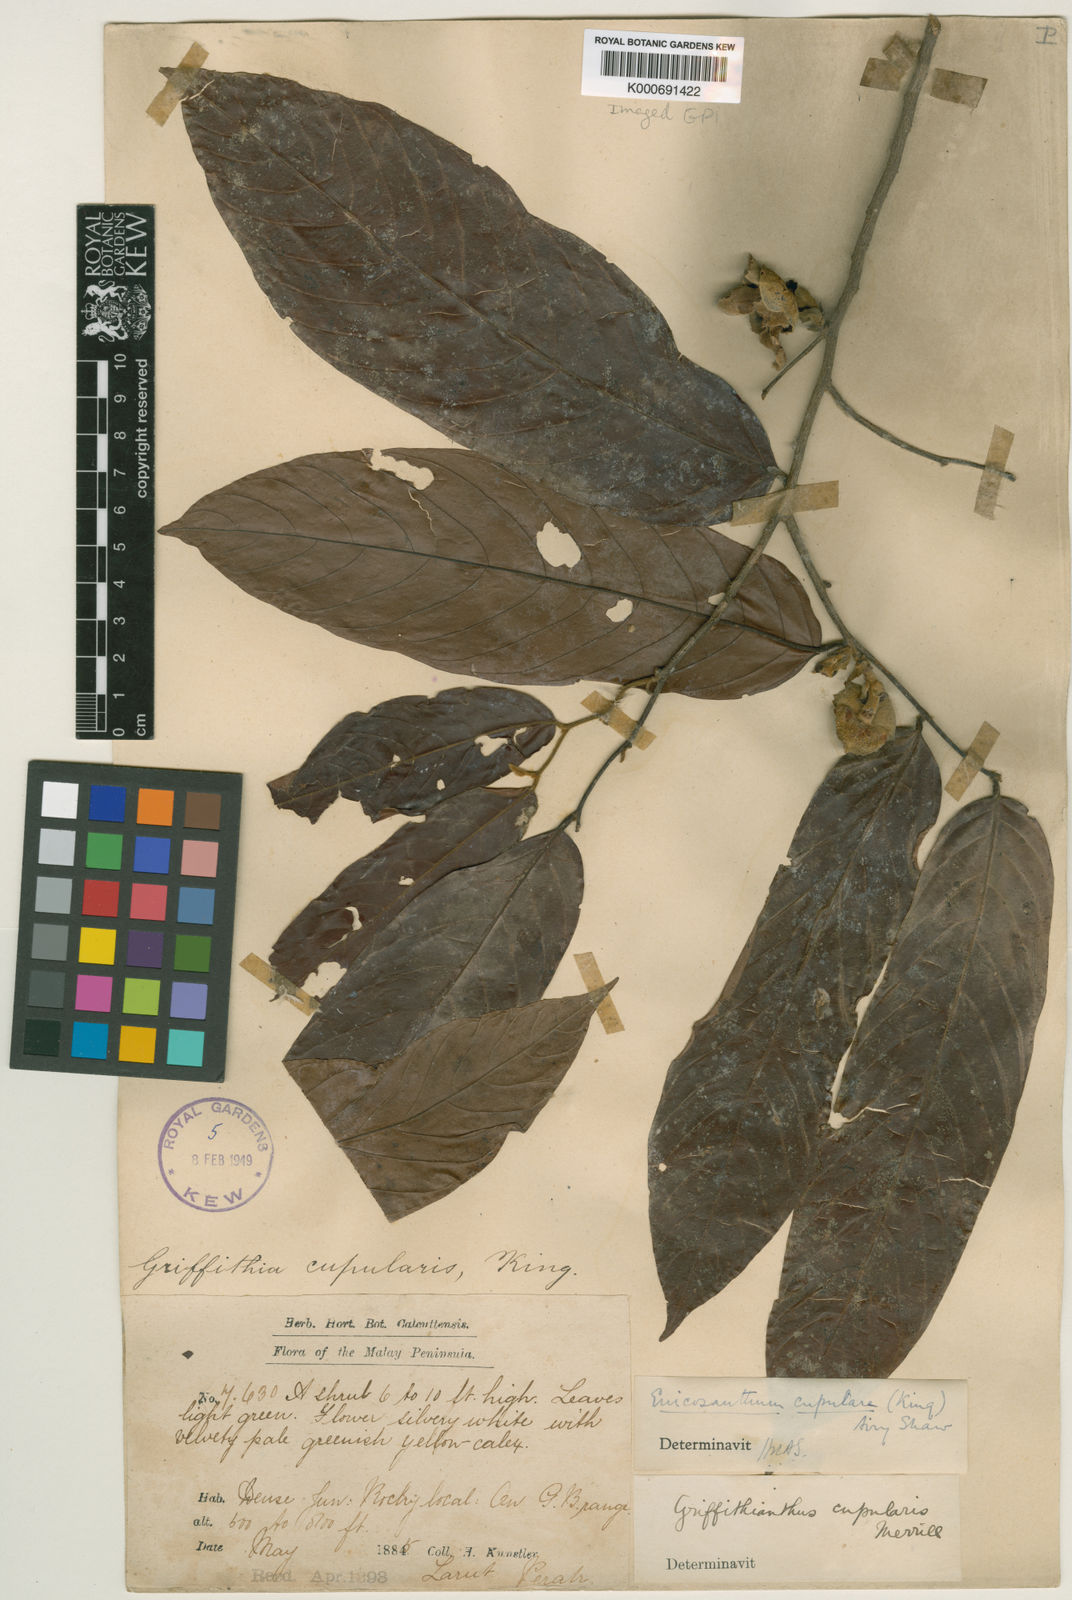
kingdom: Plantae
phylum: Tracheophyta
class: Magnoliopsida
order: Magnoliales
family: Annonaceae
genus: Enicosanthum
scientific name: Enicosanthum cupulare
